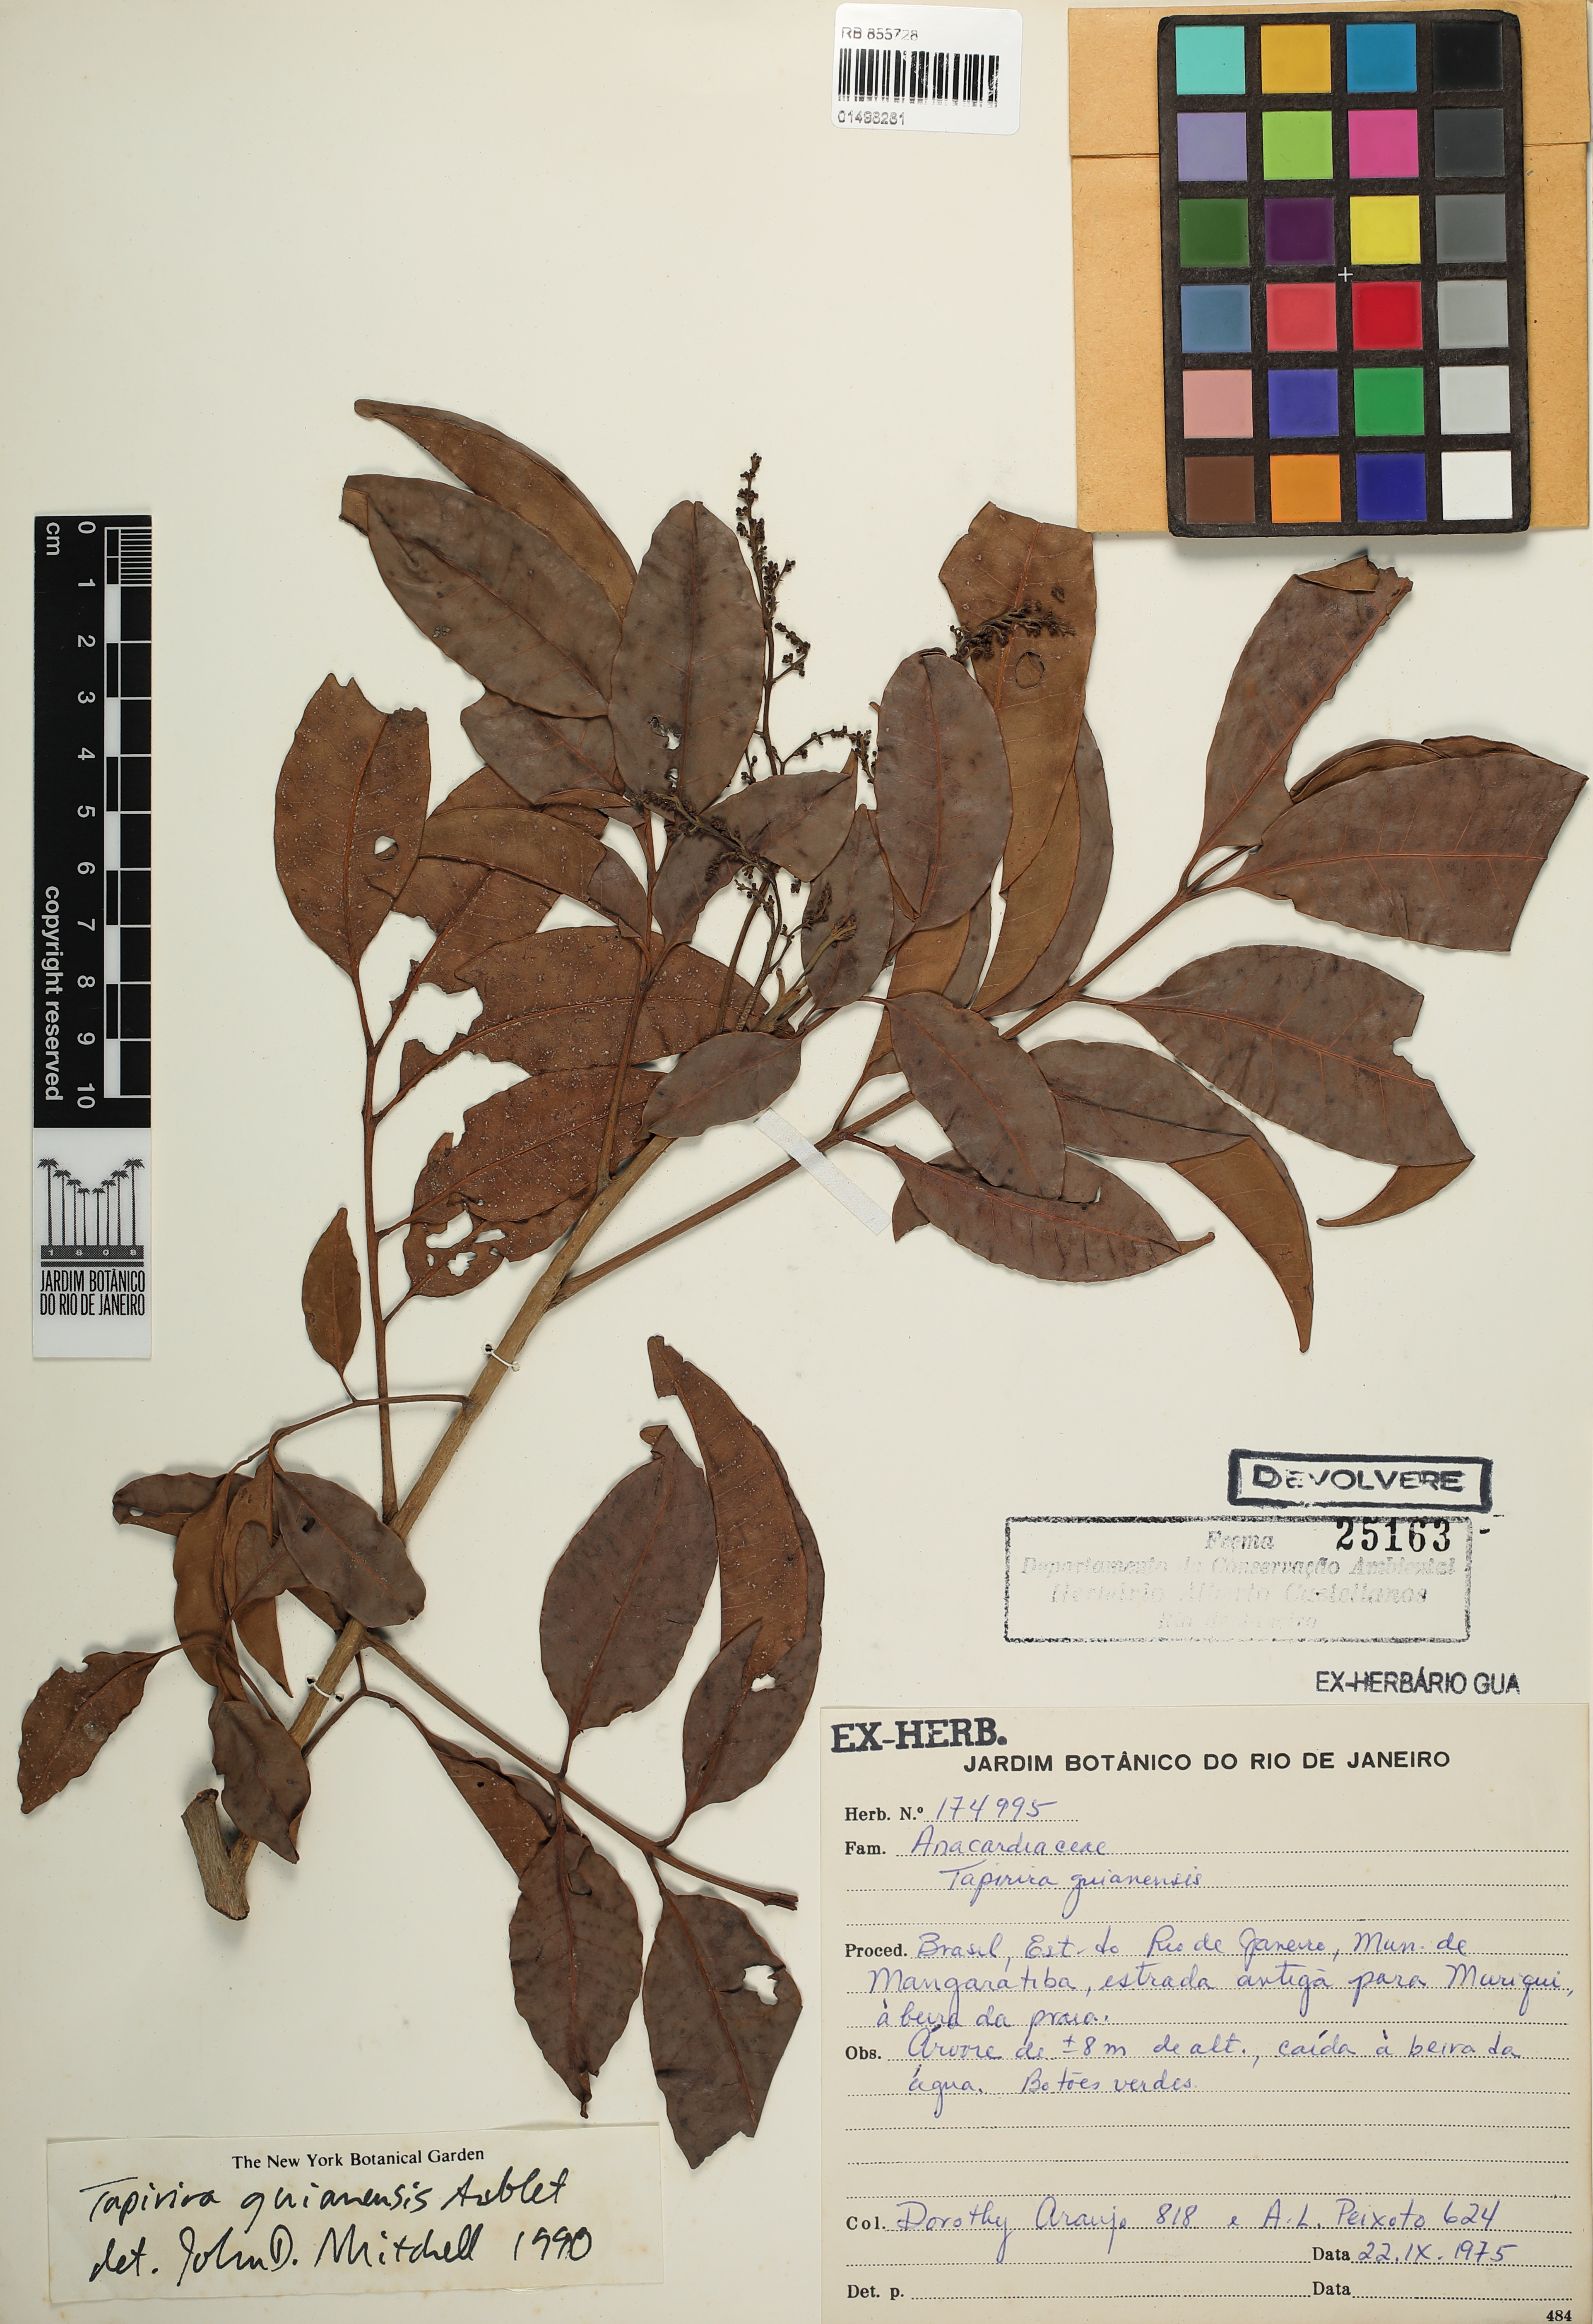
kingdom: Plantae
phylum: Tracheophyta
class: Magnoliopsida
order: Sapindales
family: Anacardiaceae
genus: Tapirira
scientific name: Tapirira guianensis
